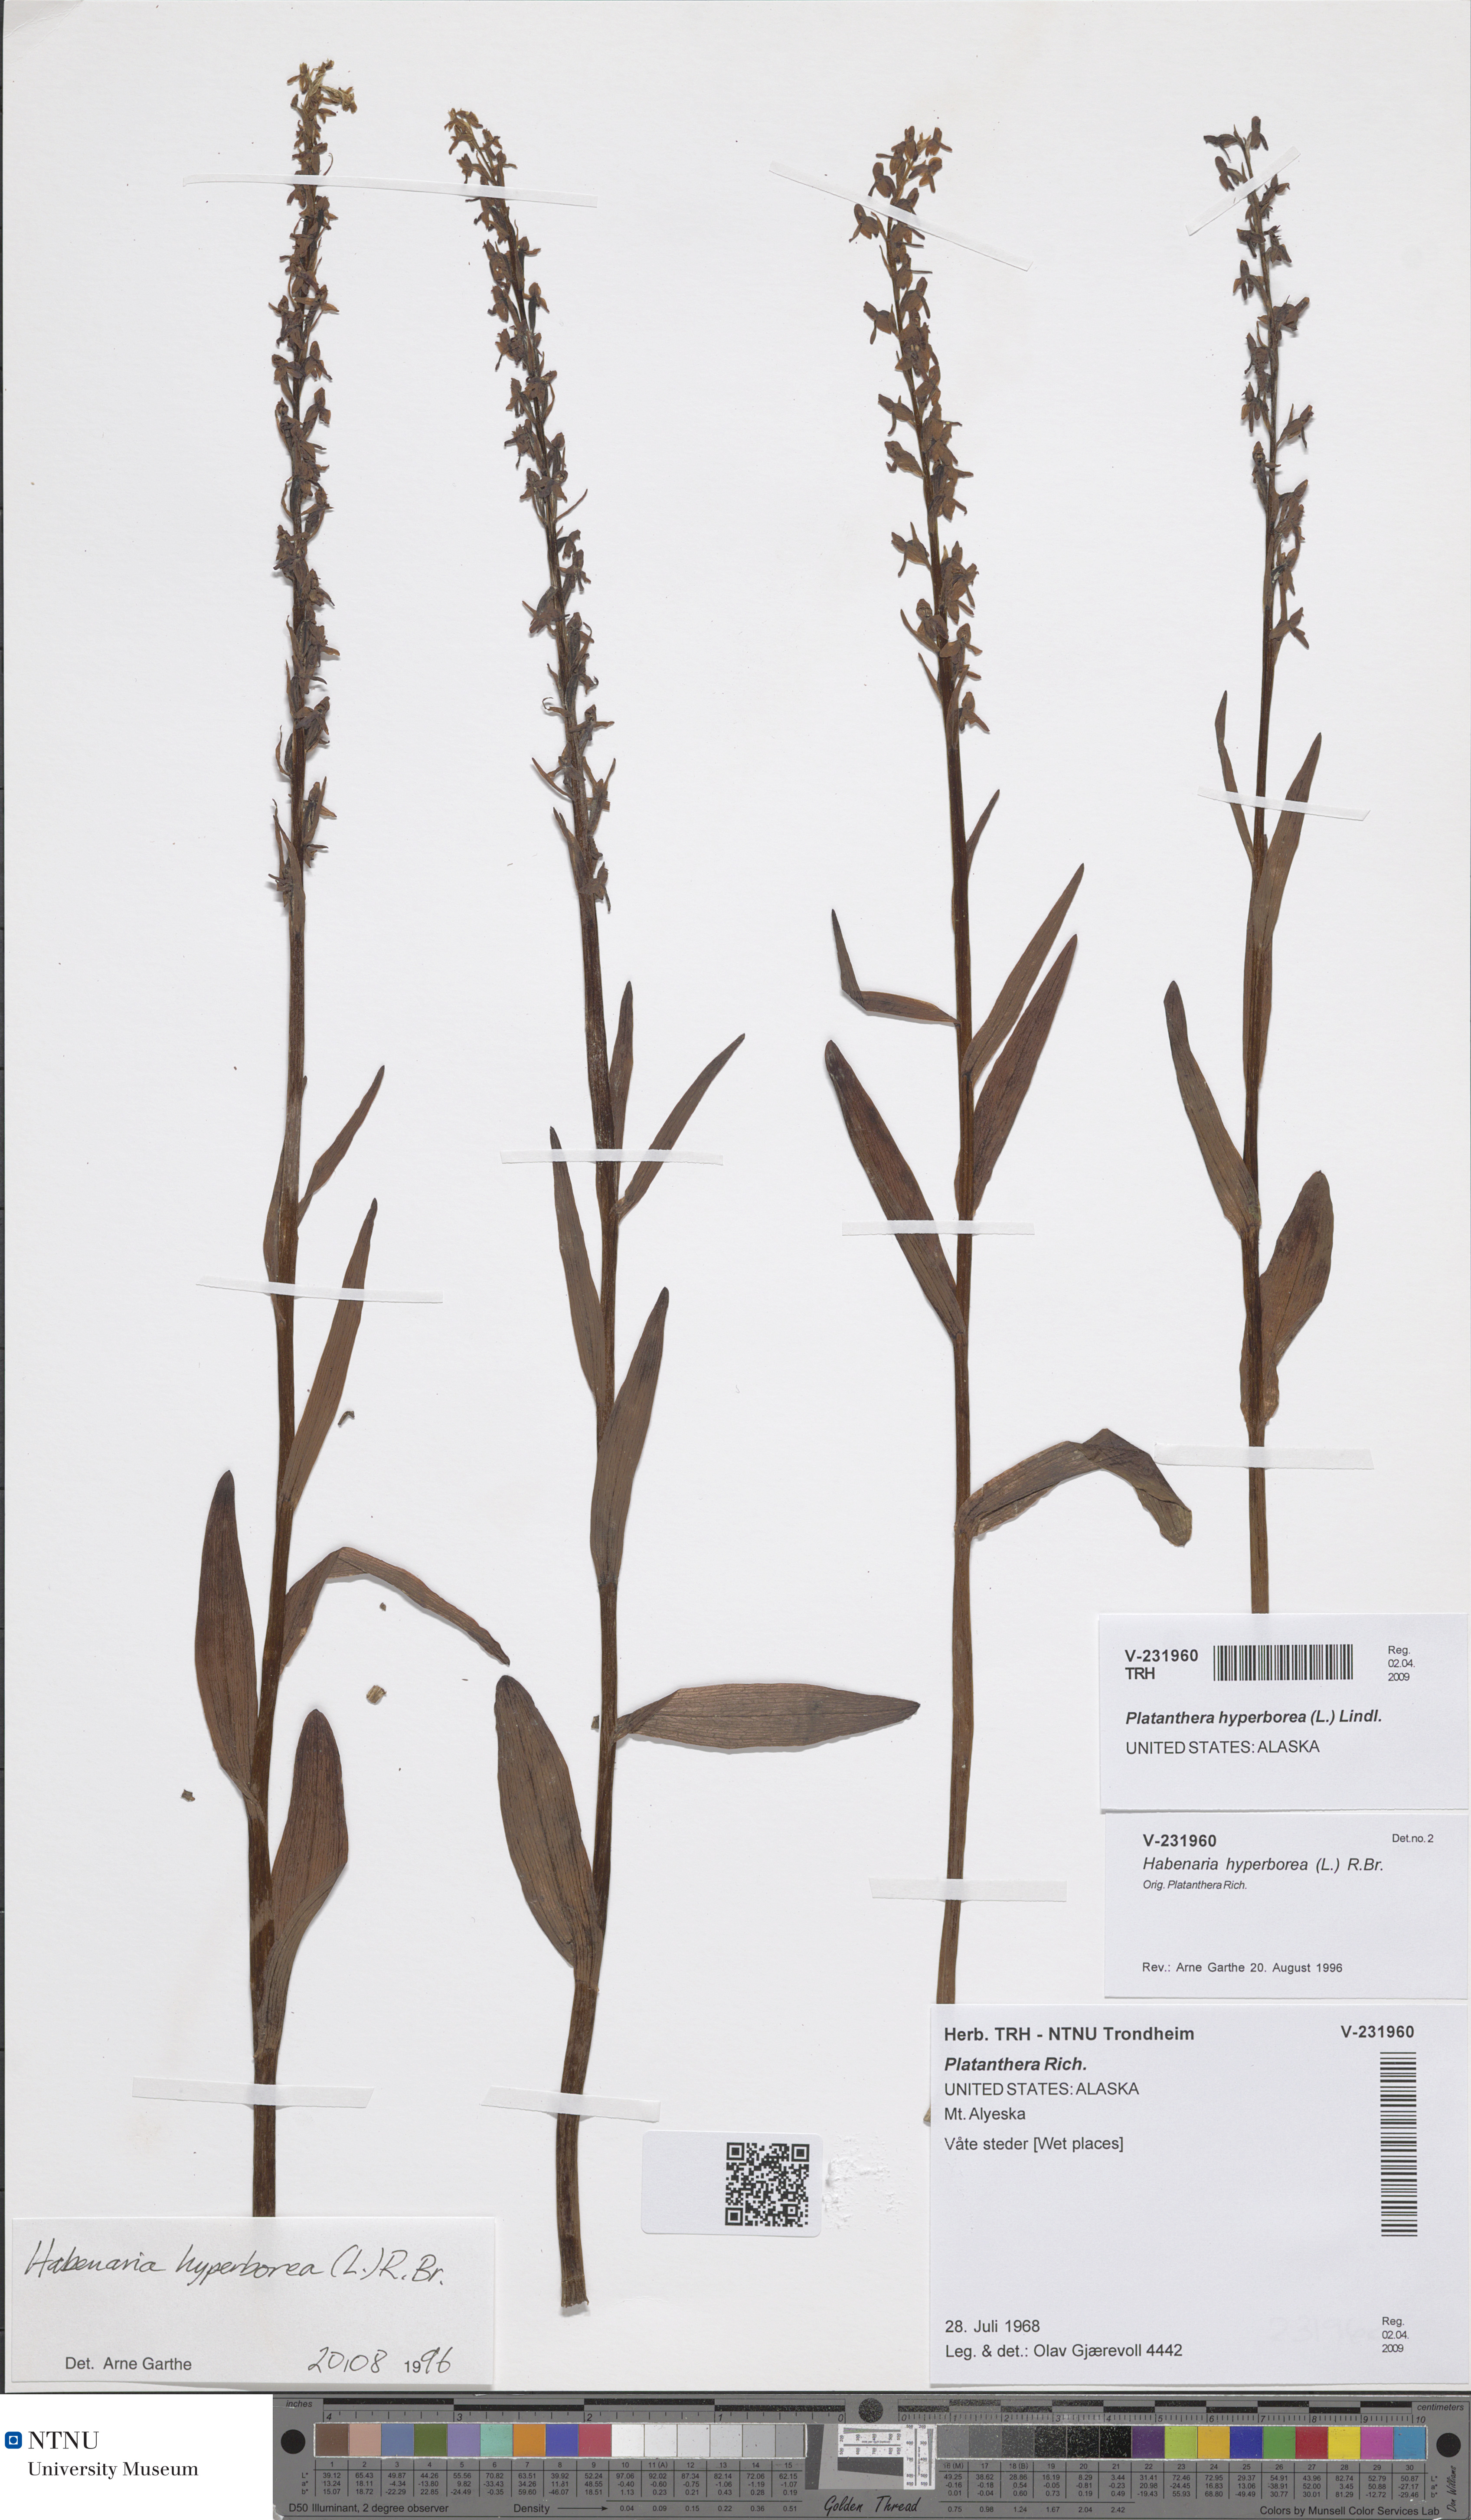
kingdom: Plantae
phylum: Tracheophyta
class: Liliopsida
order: Asparagales
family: Orchidaceae
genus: Platanthera
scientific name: Platanthera hyperborea
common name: Northern green orchid
